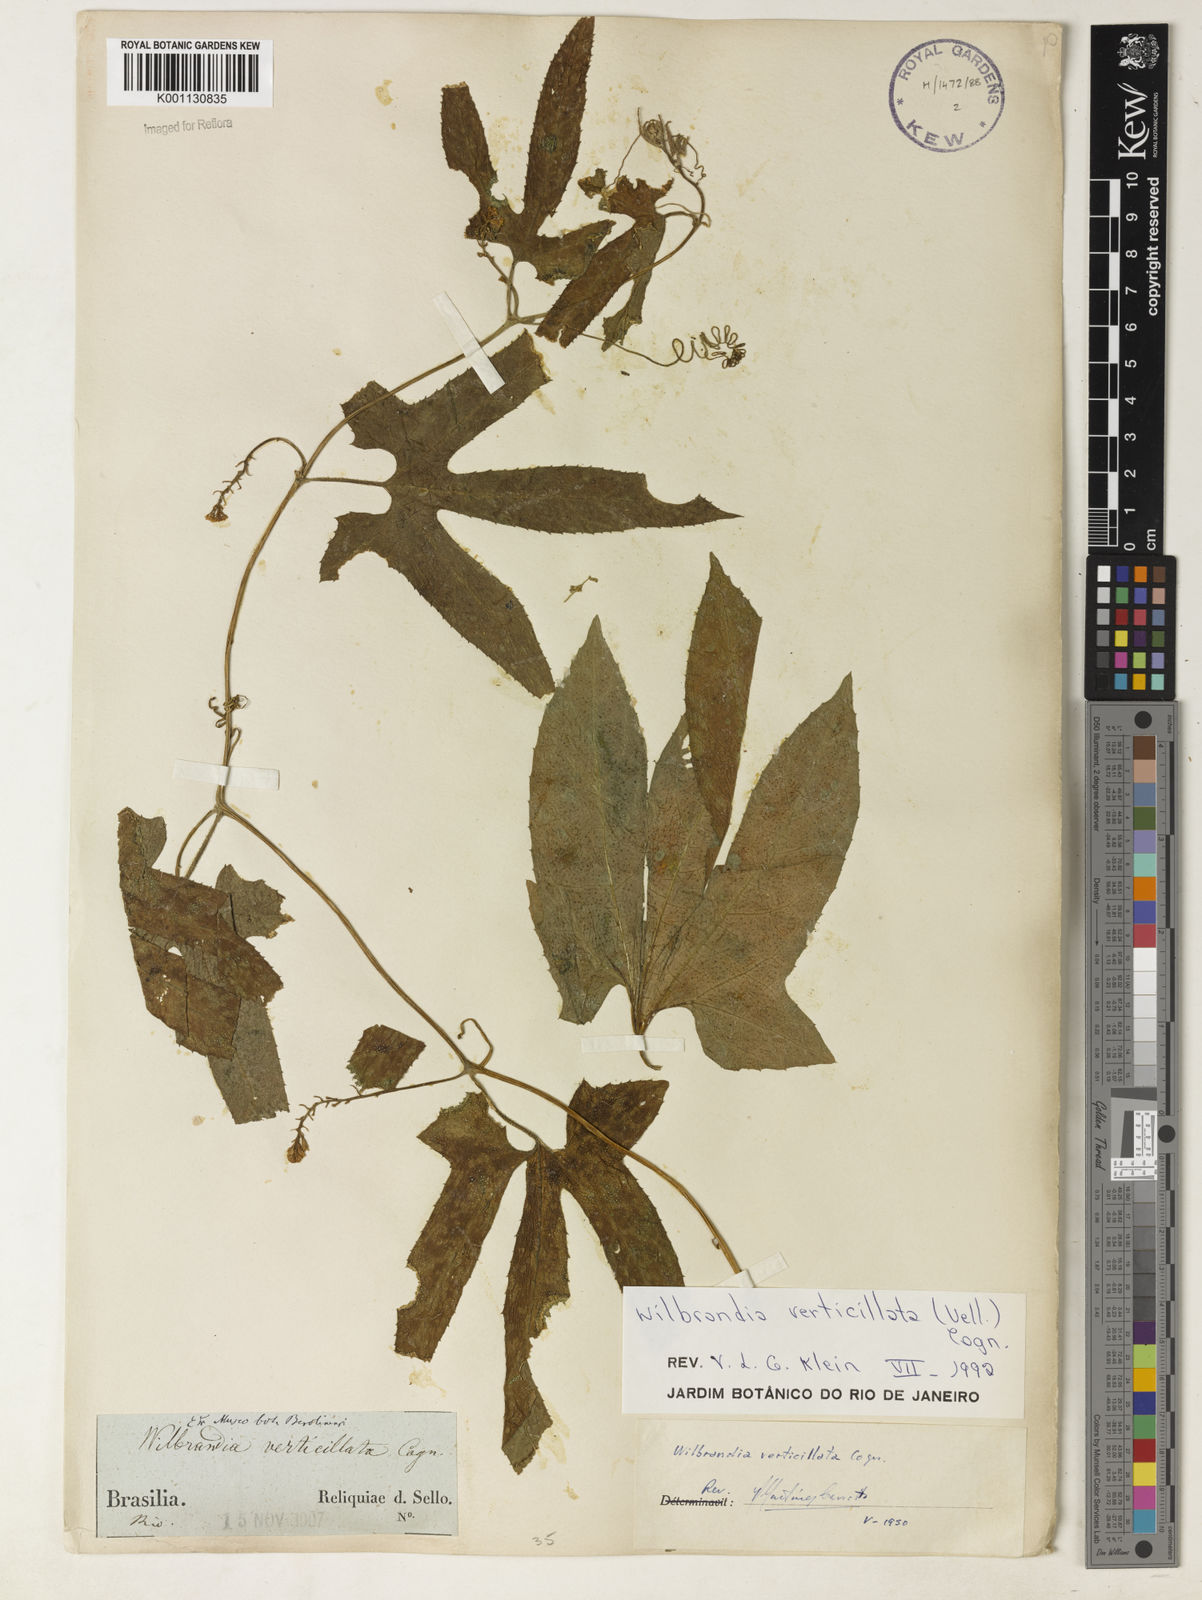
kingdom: Plantae
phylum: Tracheophyta
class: Magnoliopsida
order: Cucurbitales
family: Cucurbitaceae
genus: Wilbrandia
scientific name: Wilbrandia verticillata
